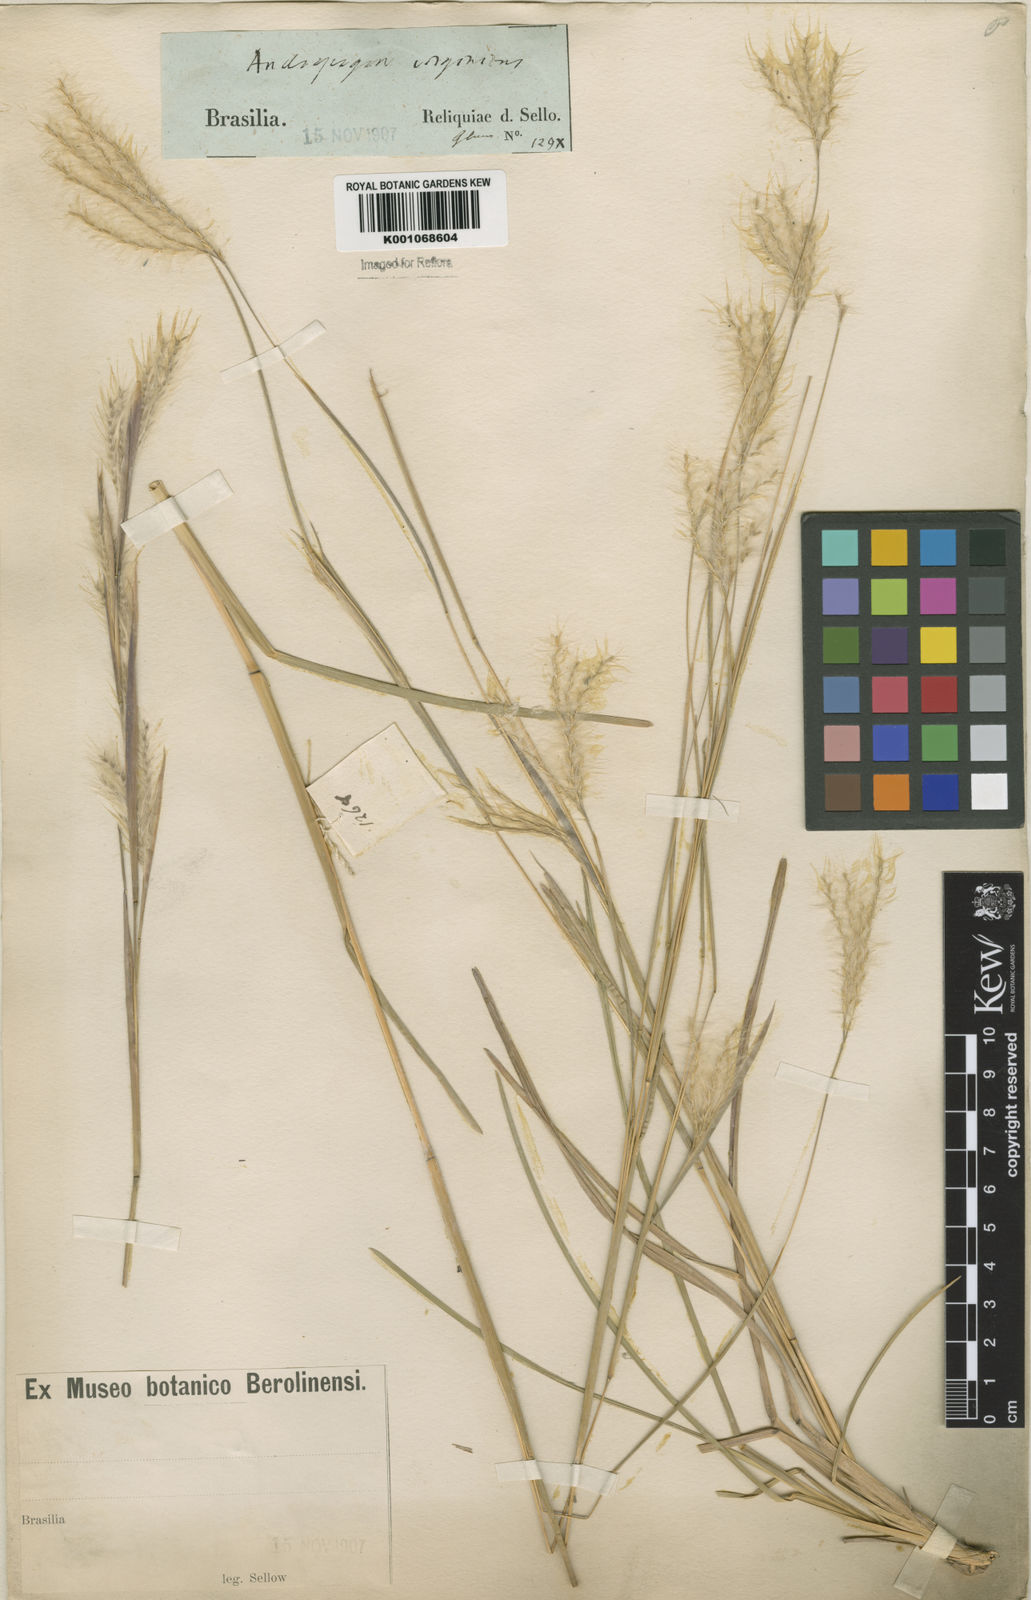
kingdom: Plantae
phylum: Tracheophyta
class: Liliopsida
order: Poales
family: Poaceae
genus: Andropogon
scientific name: Andropogon selloanus
